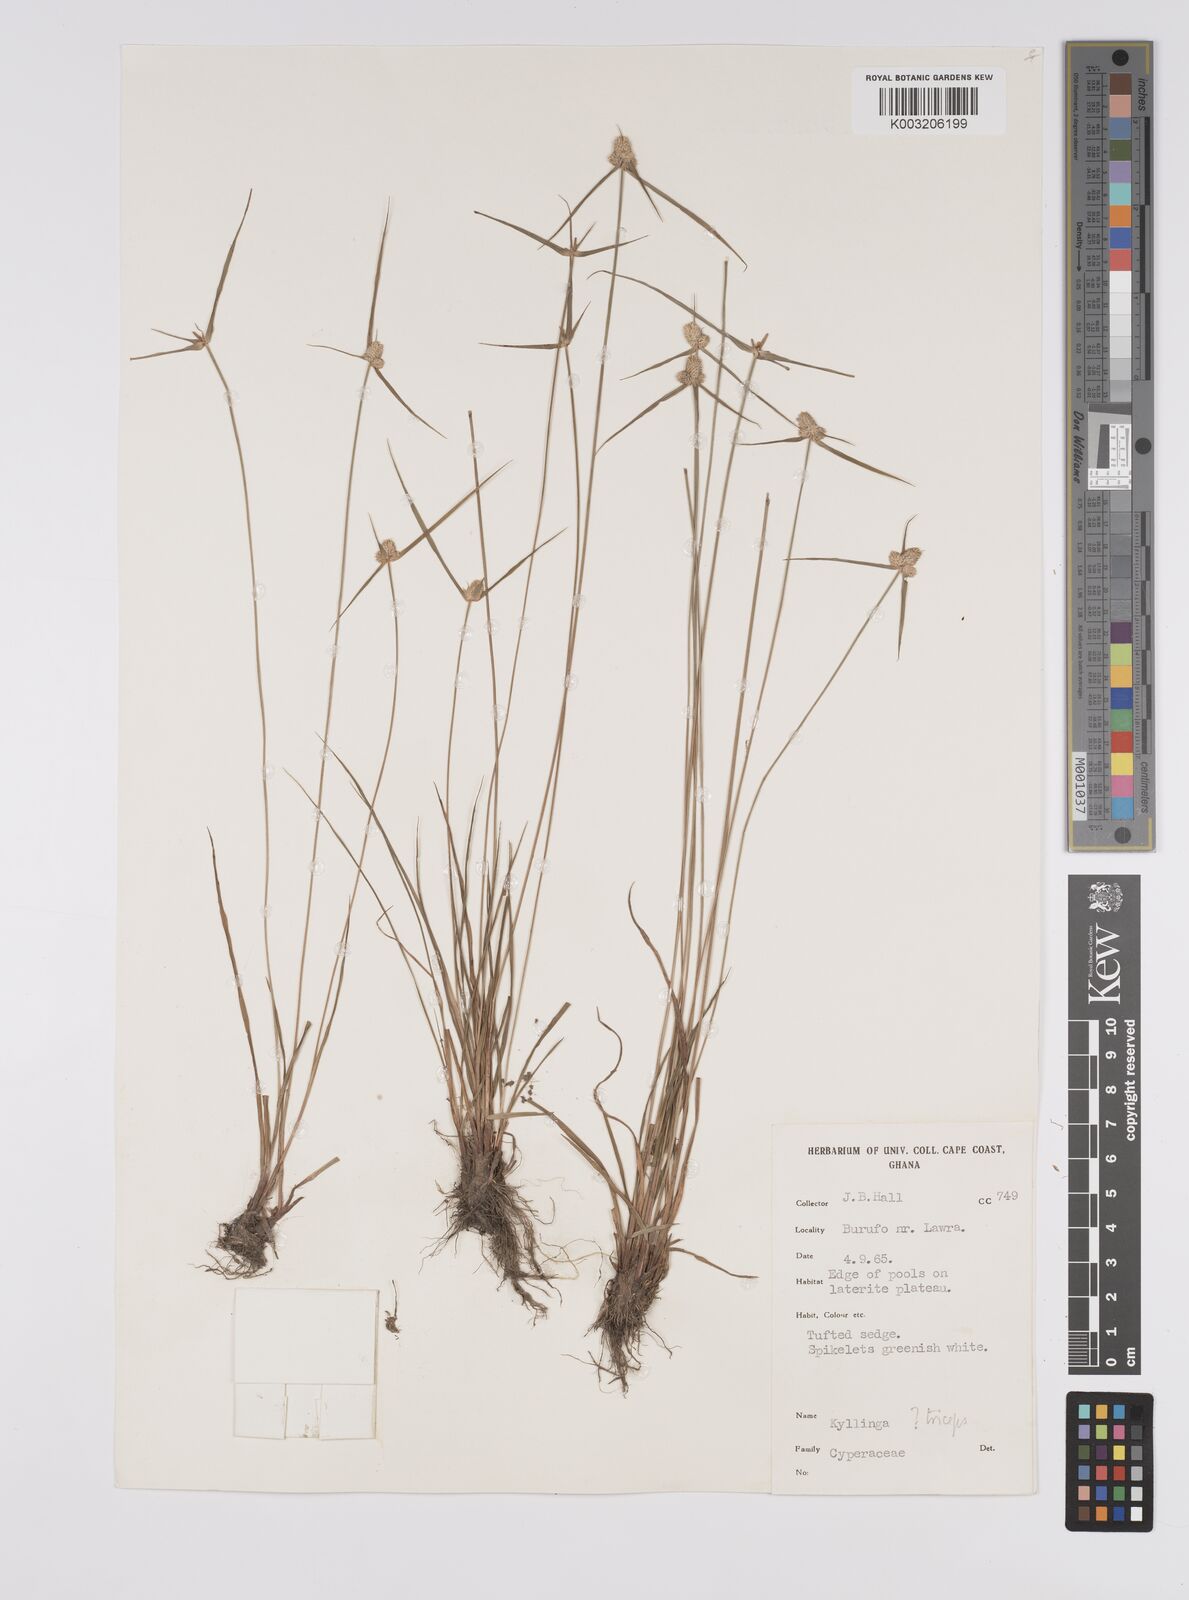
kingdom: Plantae
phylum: Tracheophyta
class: Liliopsida
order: Poales
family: Cyperaceae
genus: Cyperus
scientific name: Cyperus
